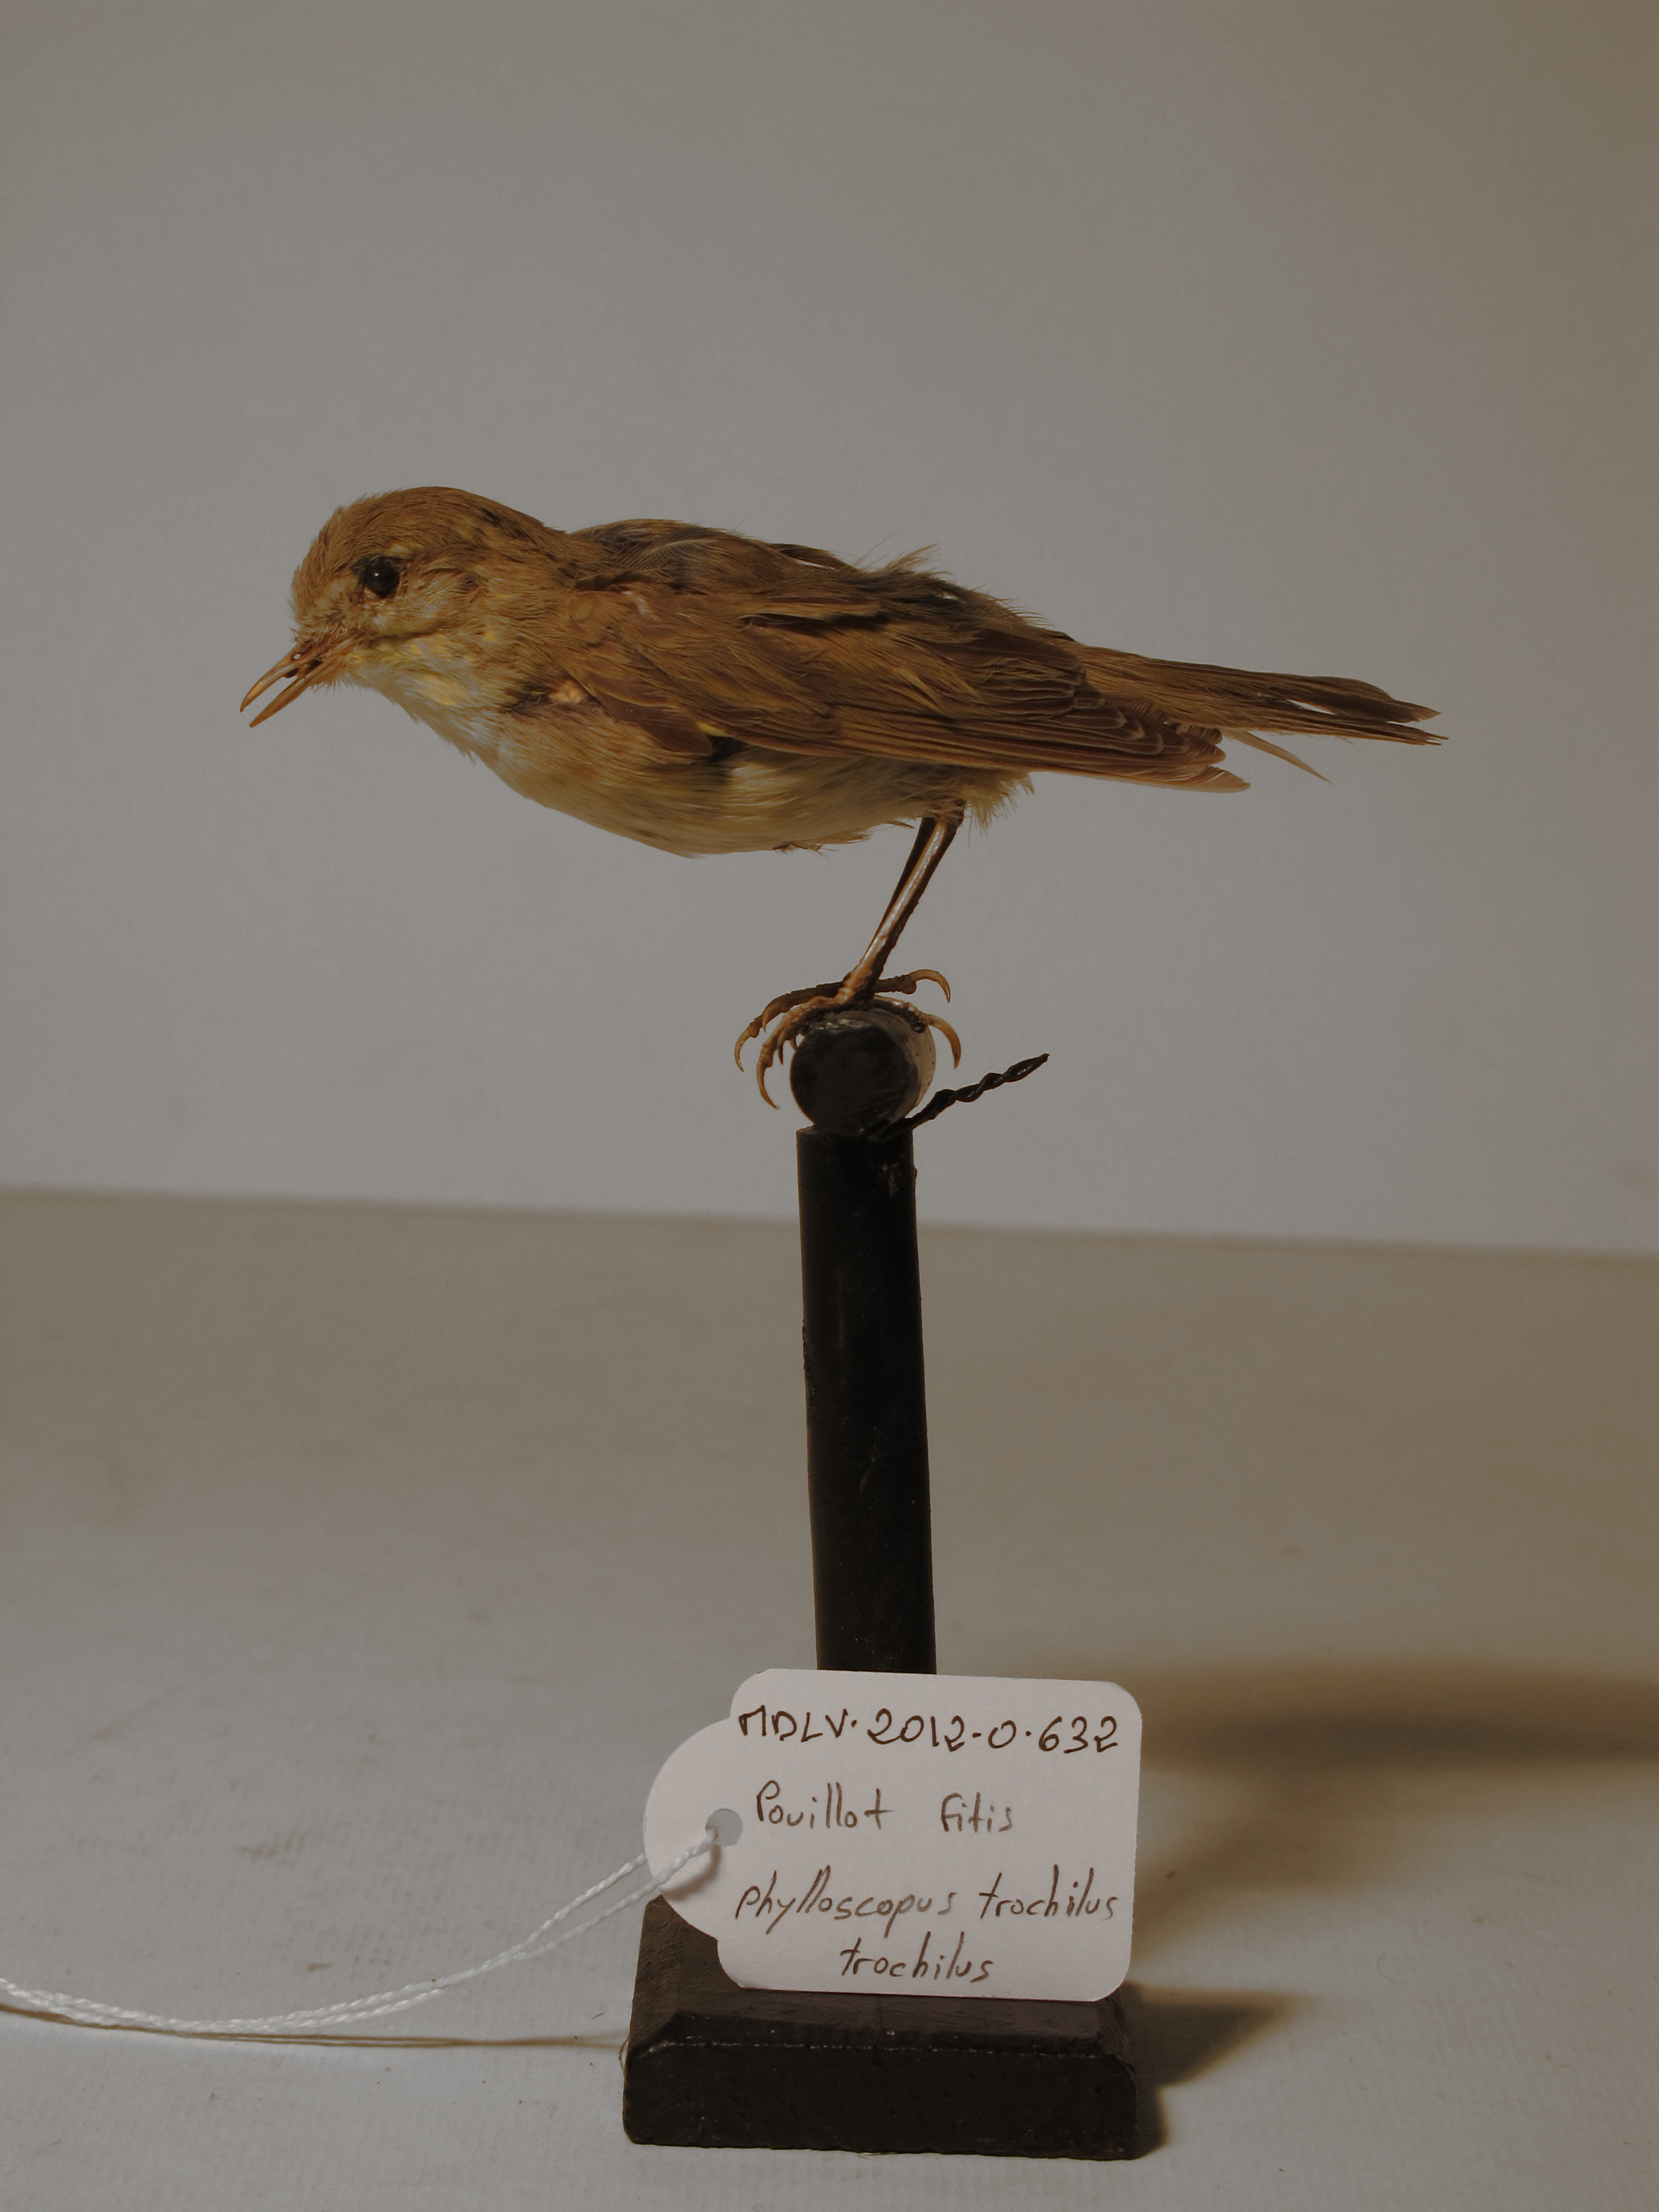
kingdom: Animalia
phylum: Chordata
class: Aves
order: Passeriformes
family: Phylloscopidae
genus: Phylloscopus
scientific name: Phylloscopus trochilus
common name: Willow Warbler
